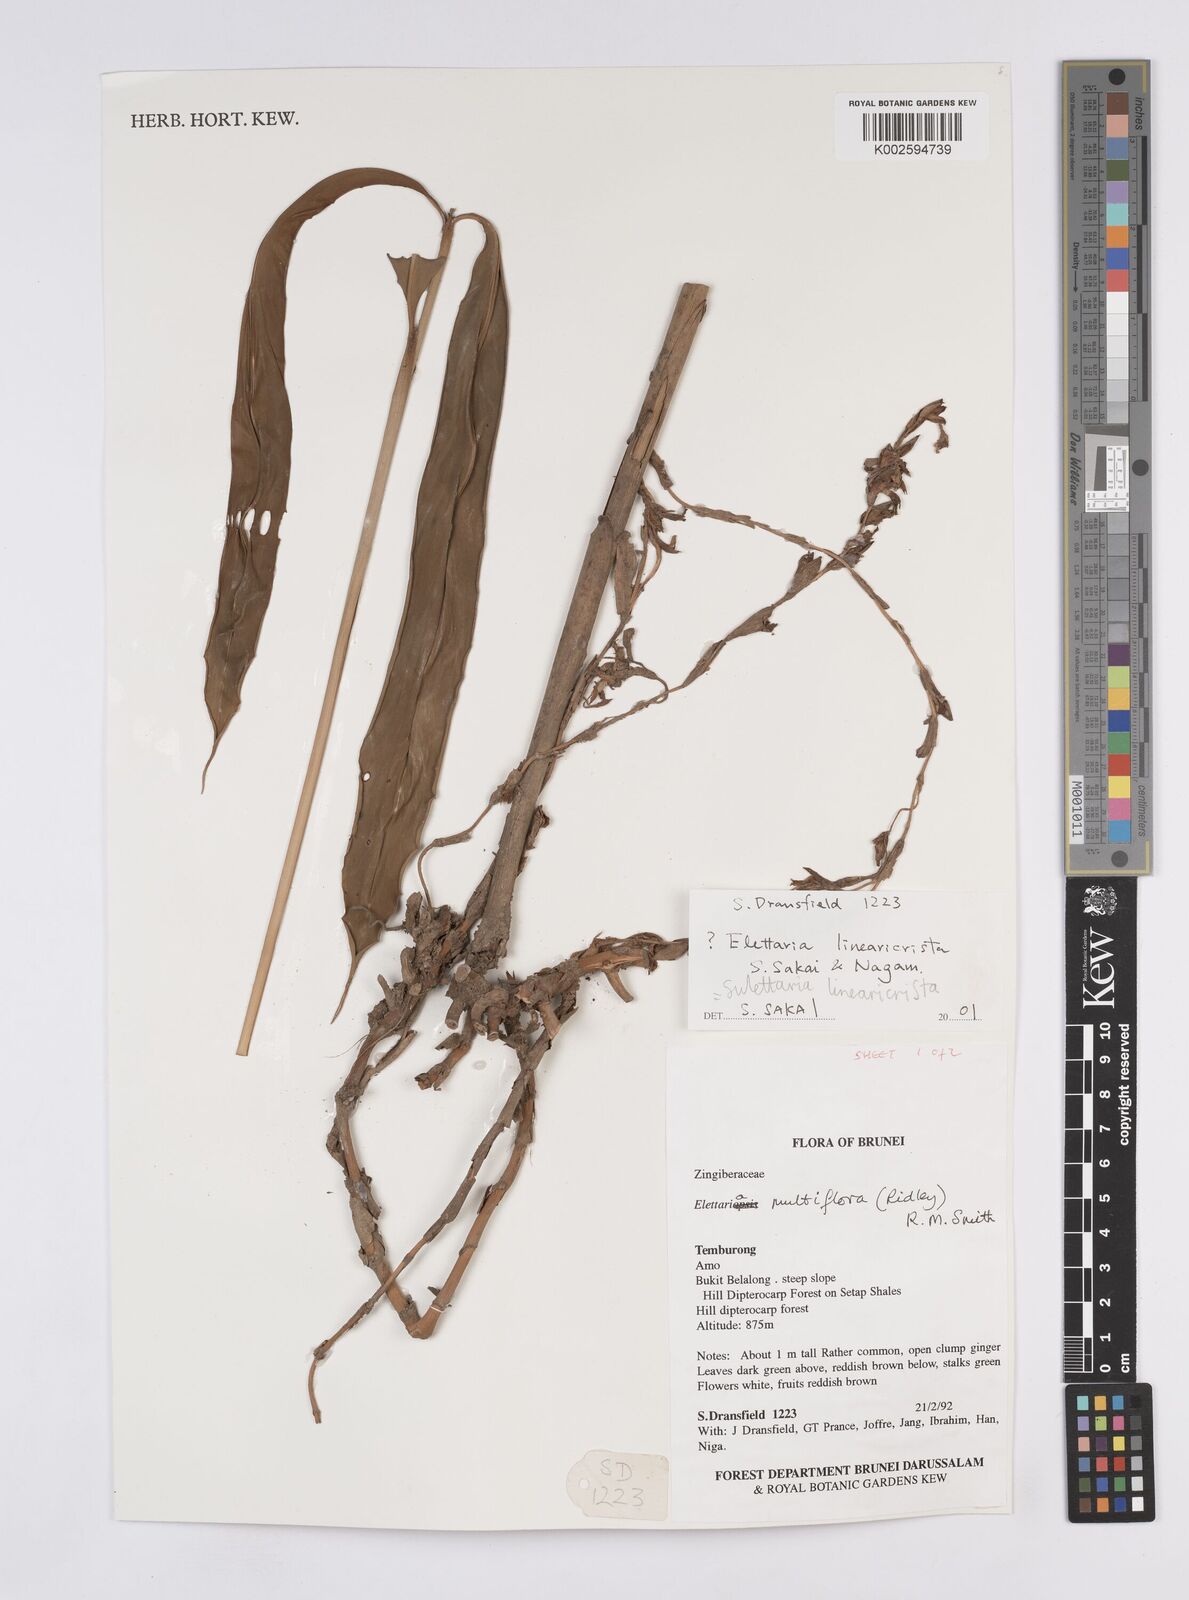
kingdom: Plantae
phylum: Tracheophyta
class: Liliopsida
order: Zingiberales
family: Zingiberaceae
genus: Sulettaria
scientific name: Sulettaria linearicrista
